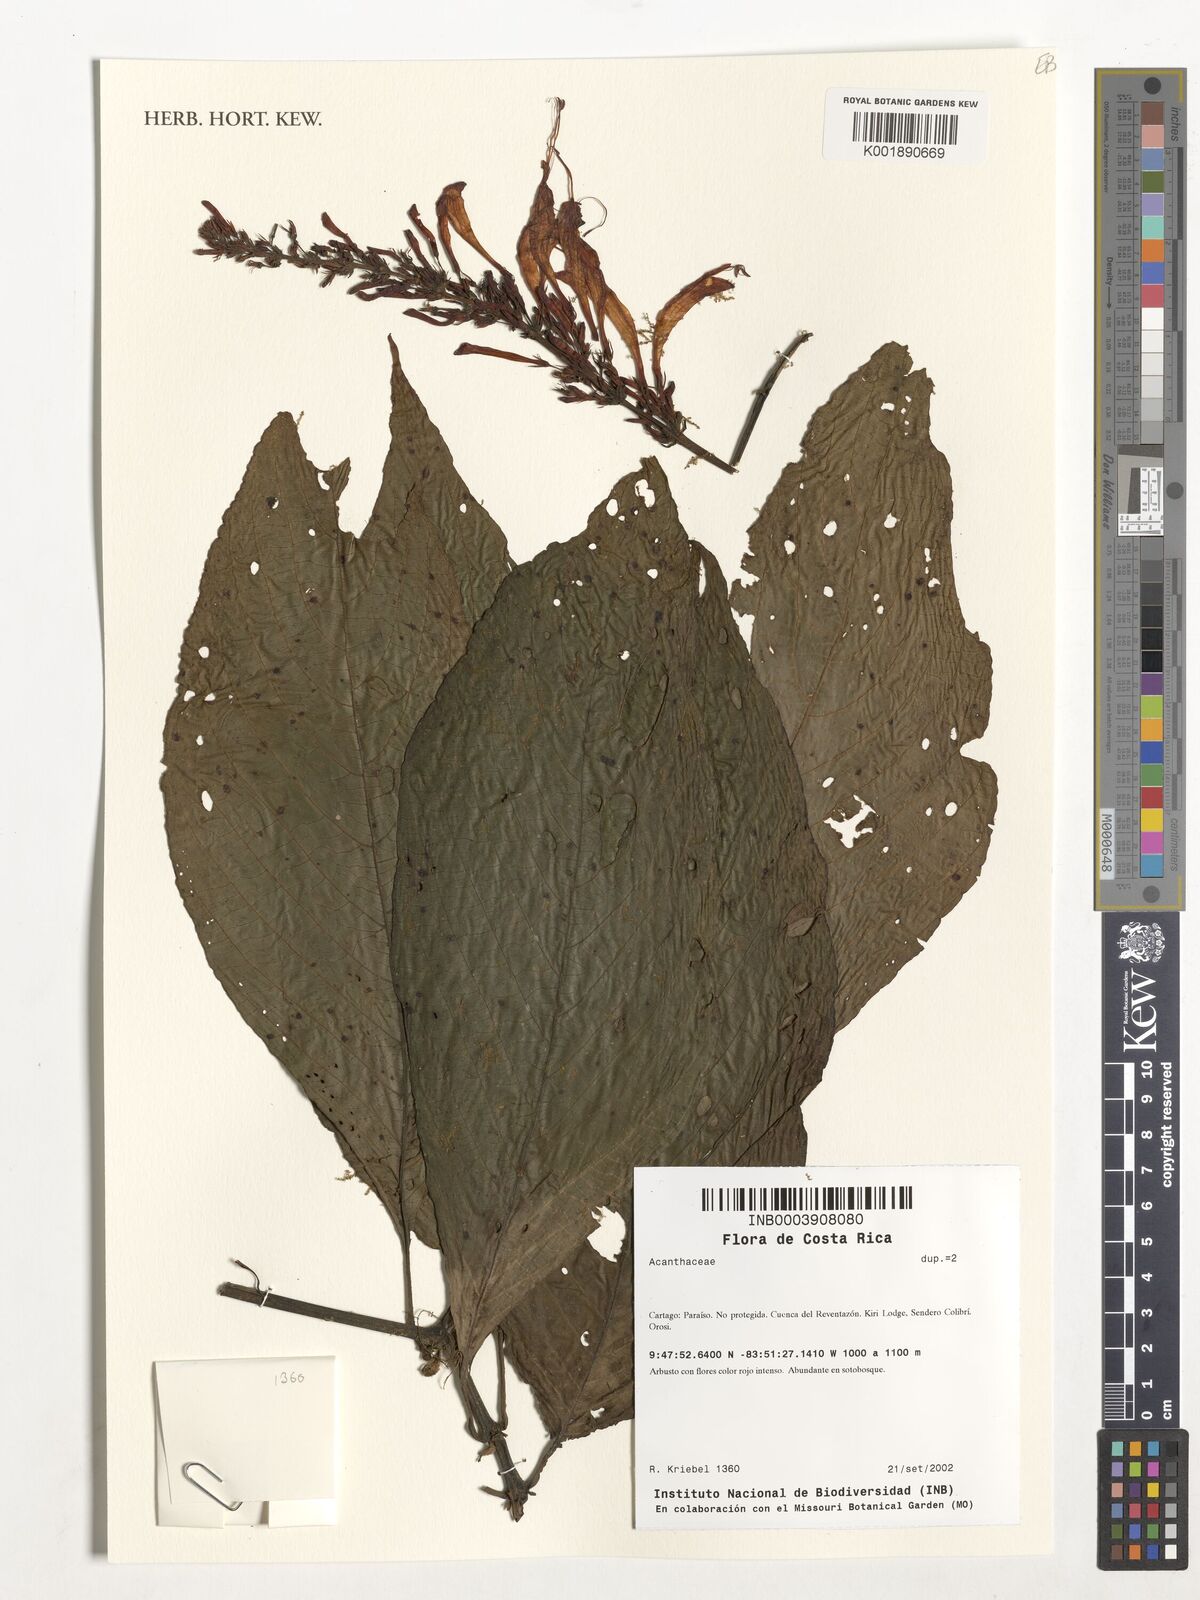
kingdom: Plantae
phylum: Tracheophyta
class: Magnoliopsida
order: Lamiales
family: Acanthaceae
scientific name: Acanthaceae
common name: Acanthaceae
